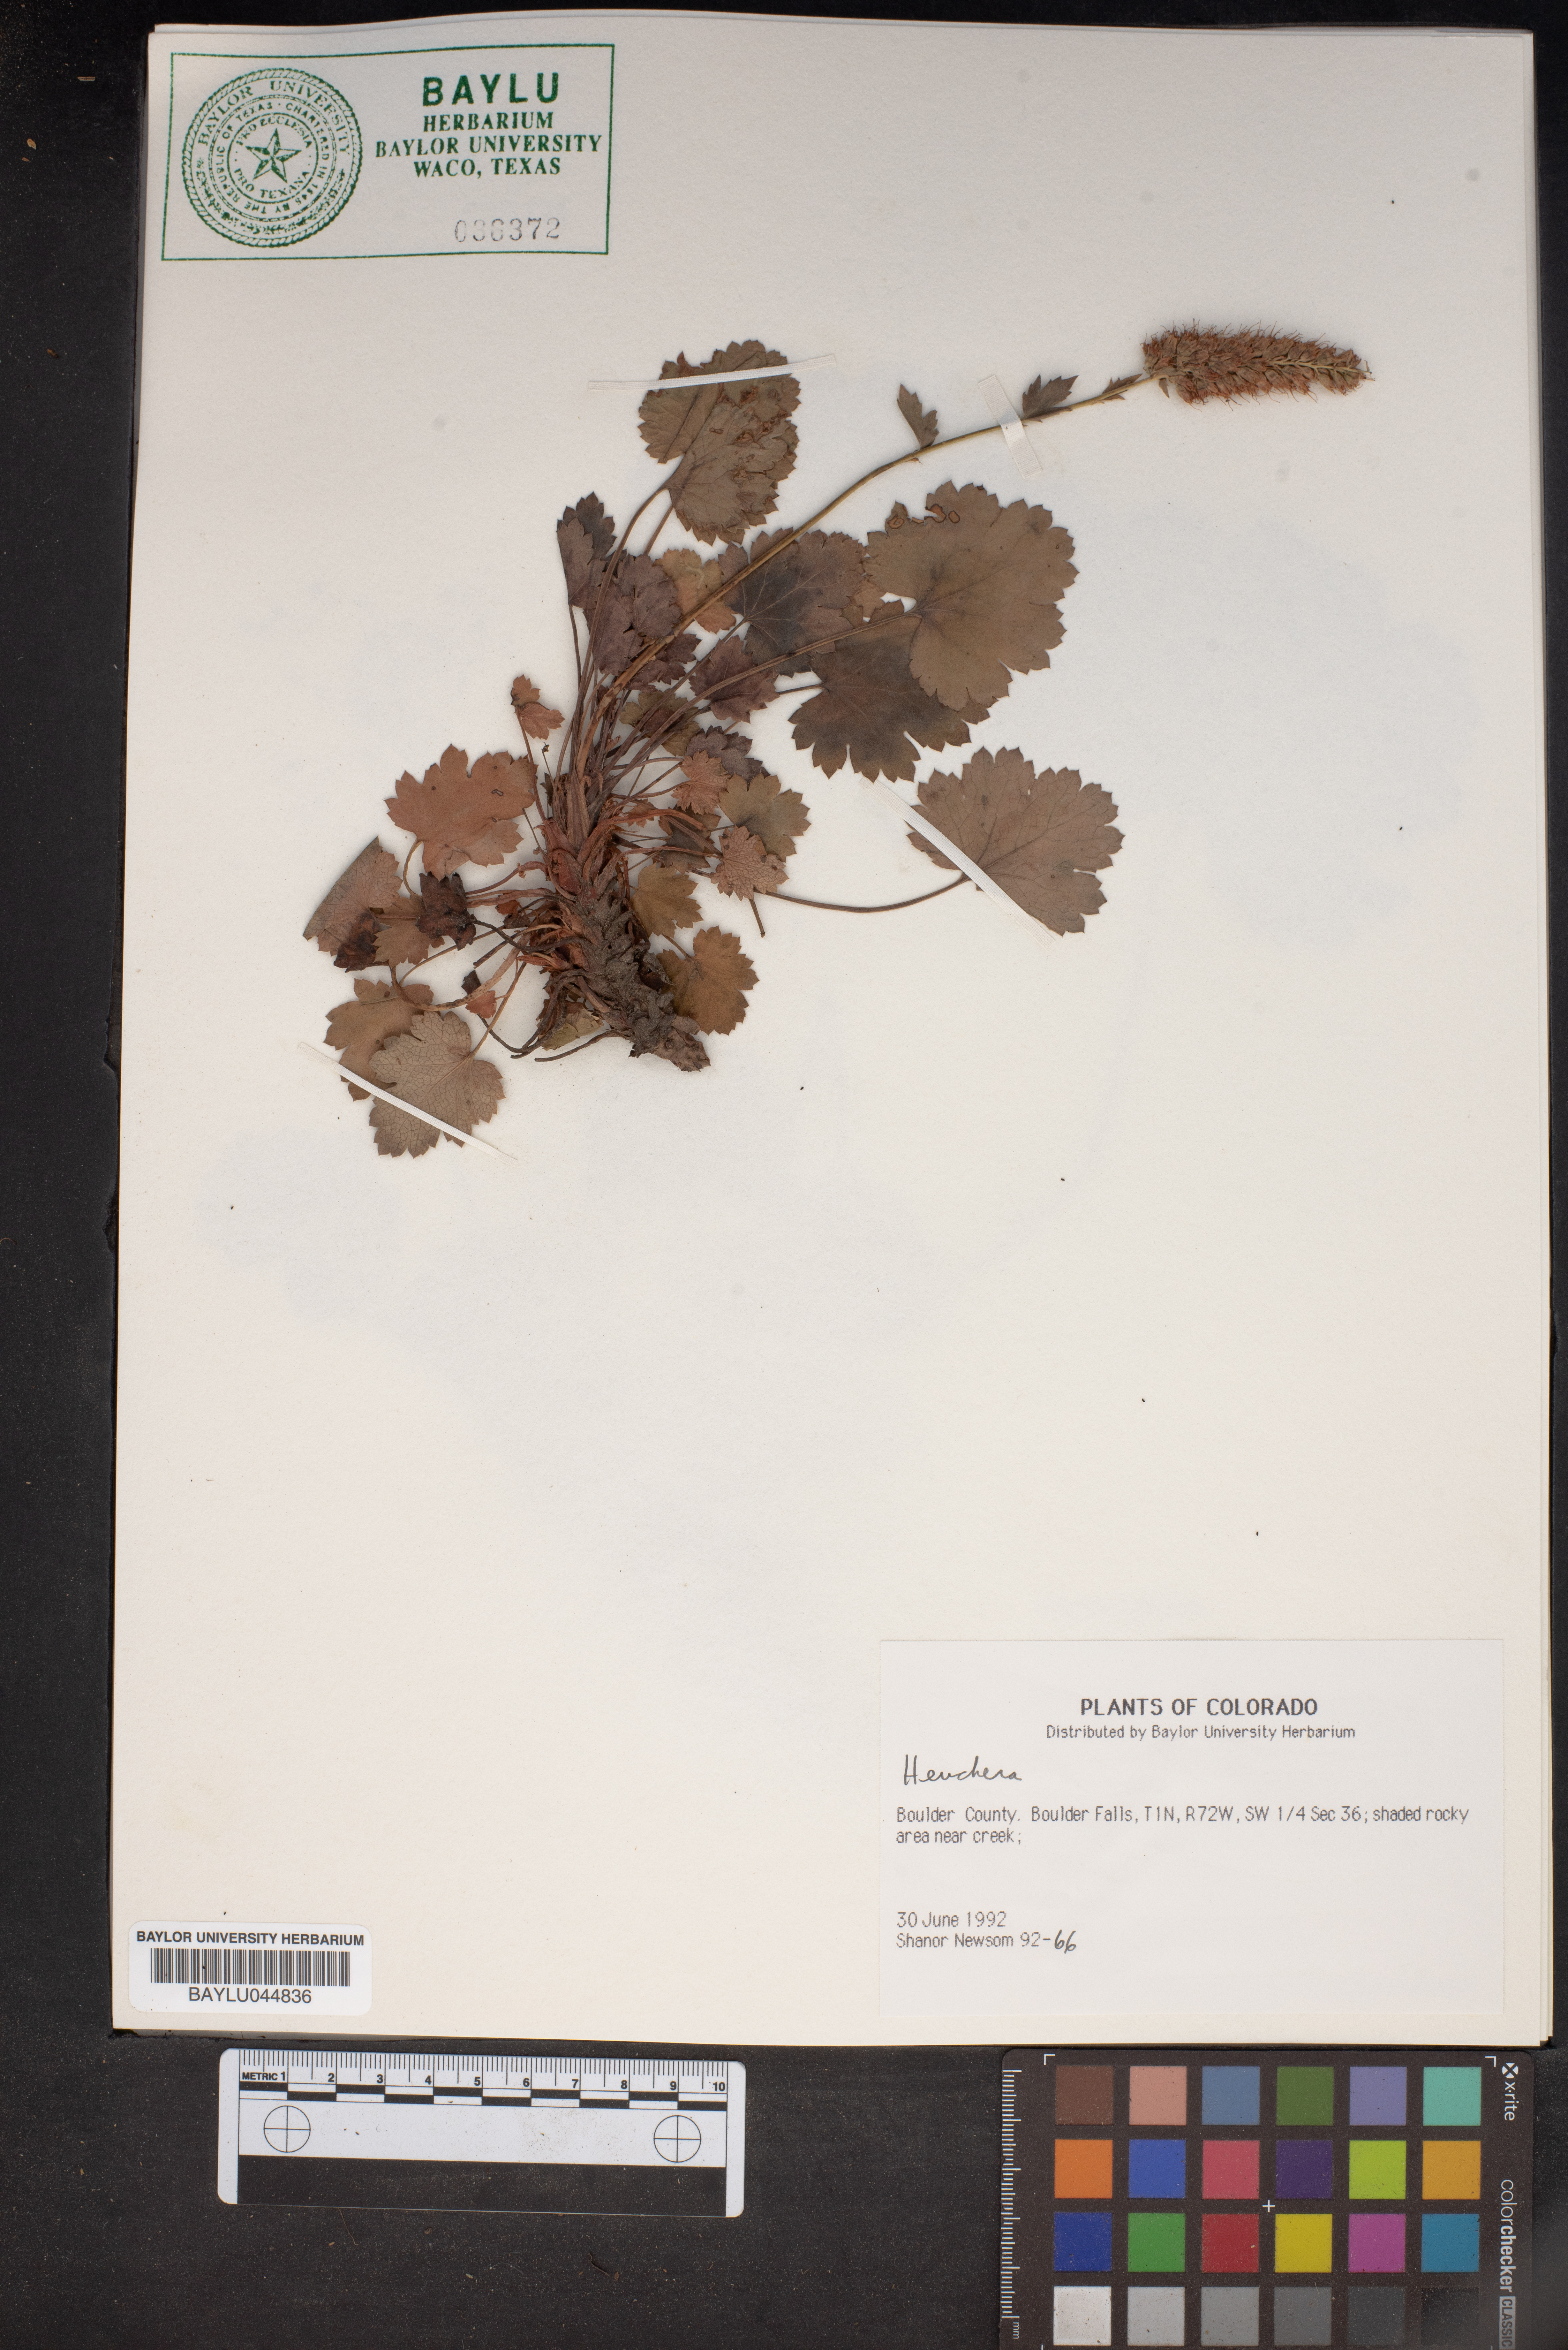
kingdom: Plantae
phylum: Tracheophyta
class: Magnoliopsida
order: Saxifragales
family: Saxifragaceae
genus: Heuchera
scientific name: Heuchera
